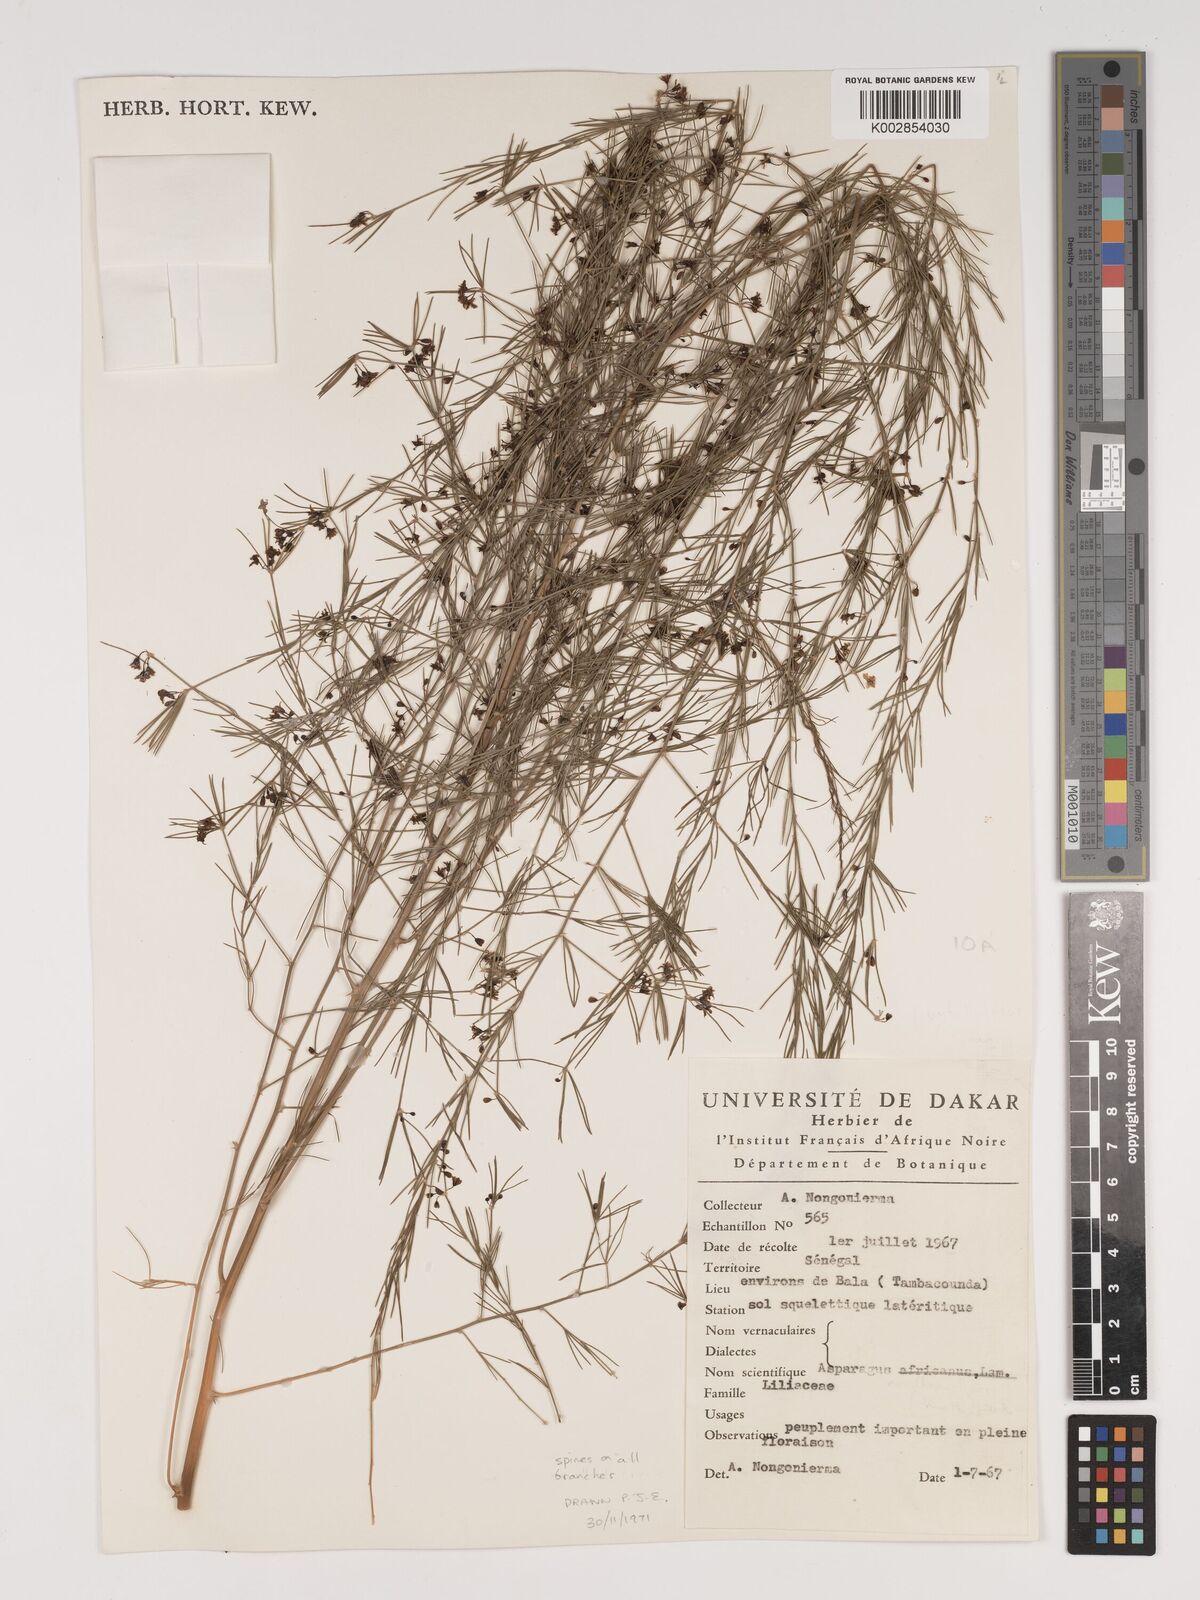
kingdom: Plantae
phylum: Tracheophyta
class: Liliopsida
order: Asparagales
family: Asparagaceae
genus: Asparagus
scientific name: Asparagus
